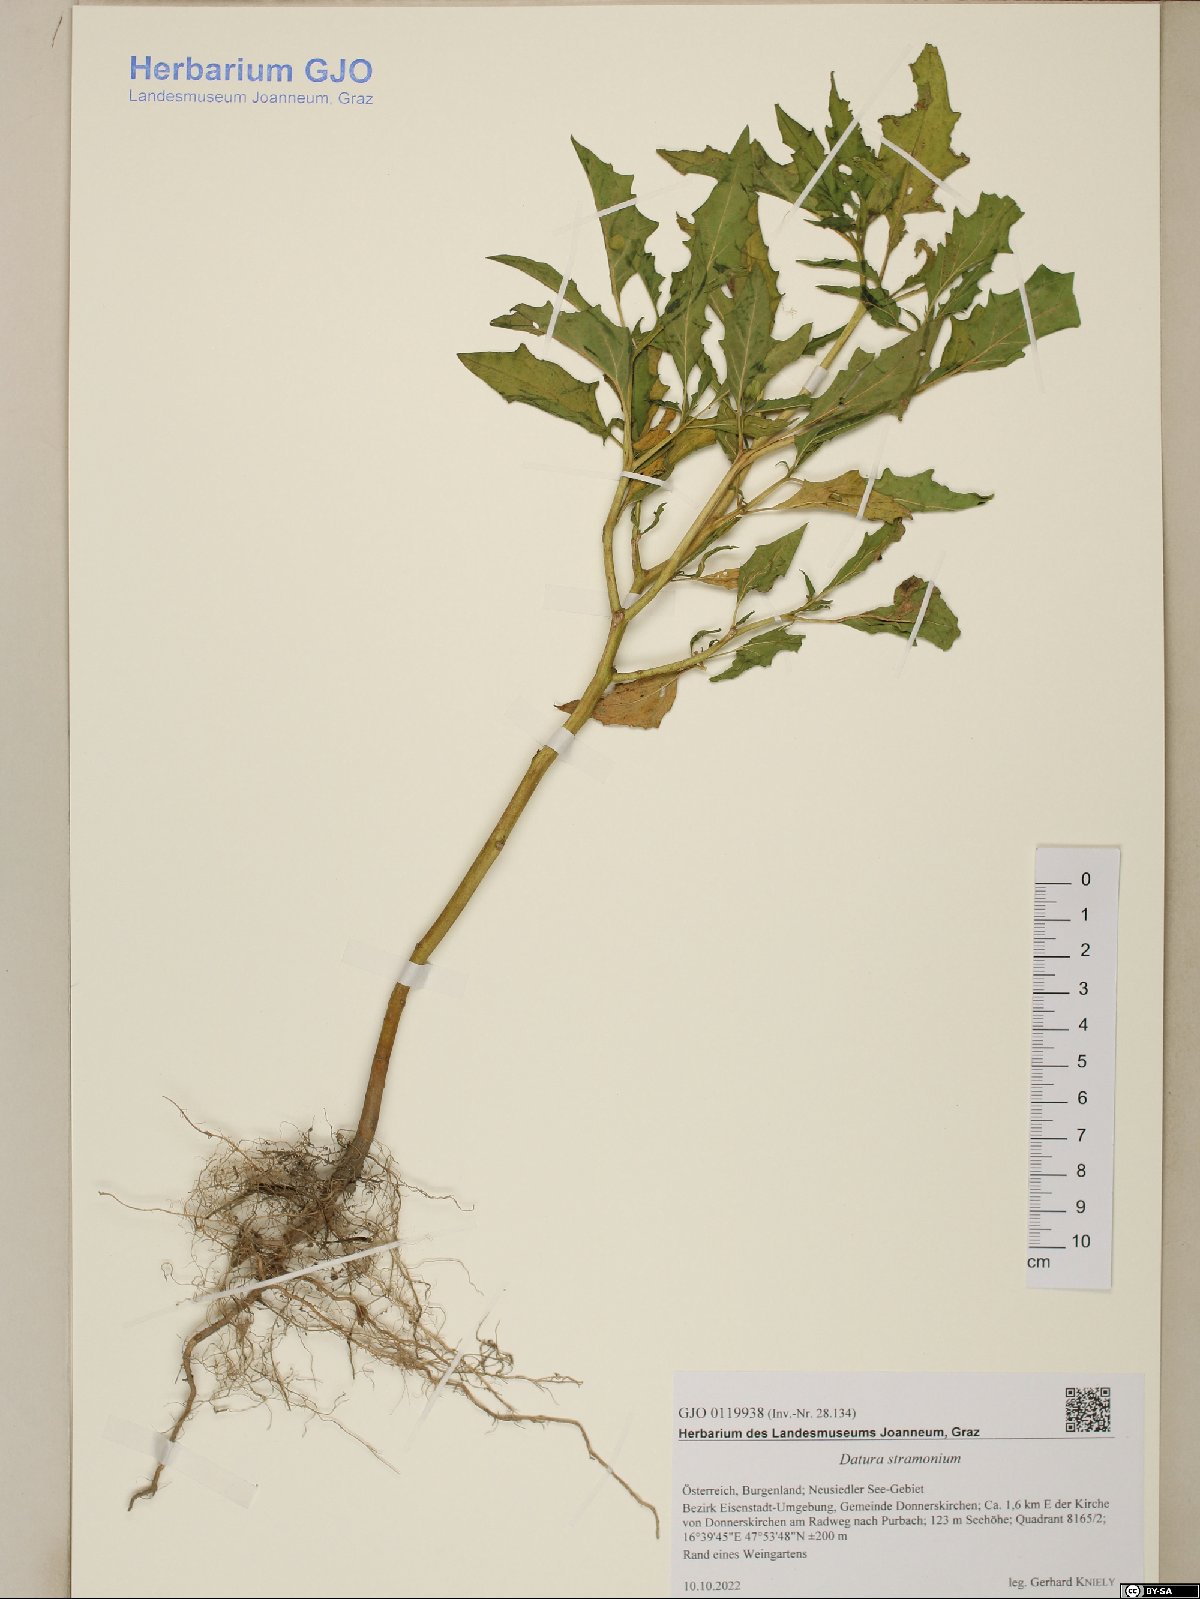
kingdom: Plantae
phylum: Tracheophyta
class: Magnoliopsida
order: Solanales
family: Solanaceae
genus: Datura
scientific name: Datura stramonium
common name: Thorn-apple
